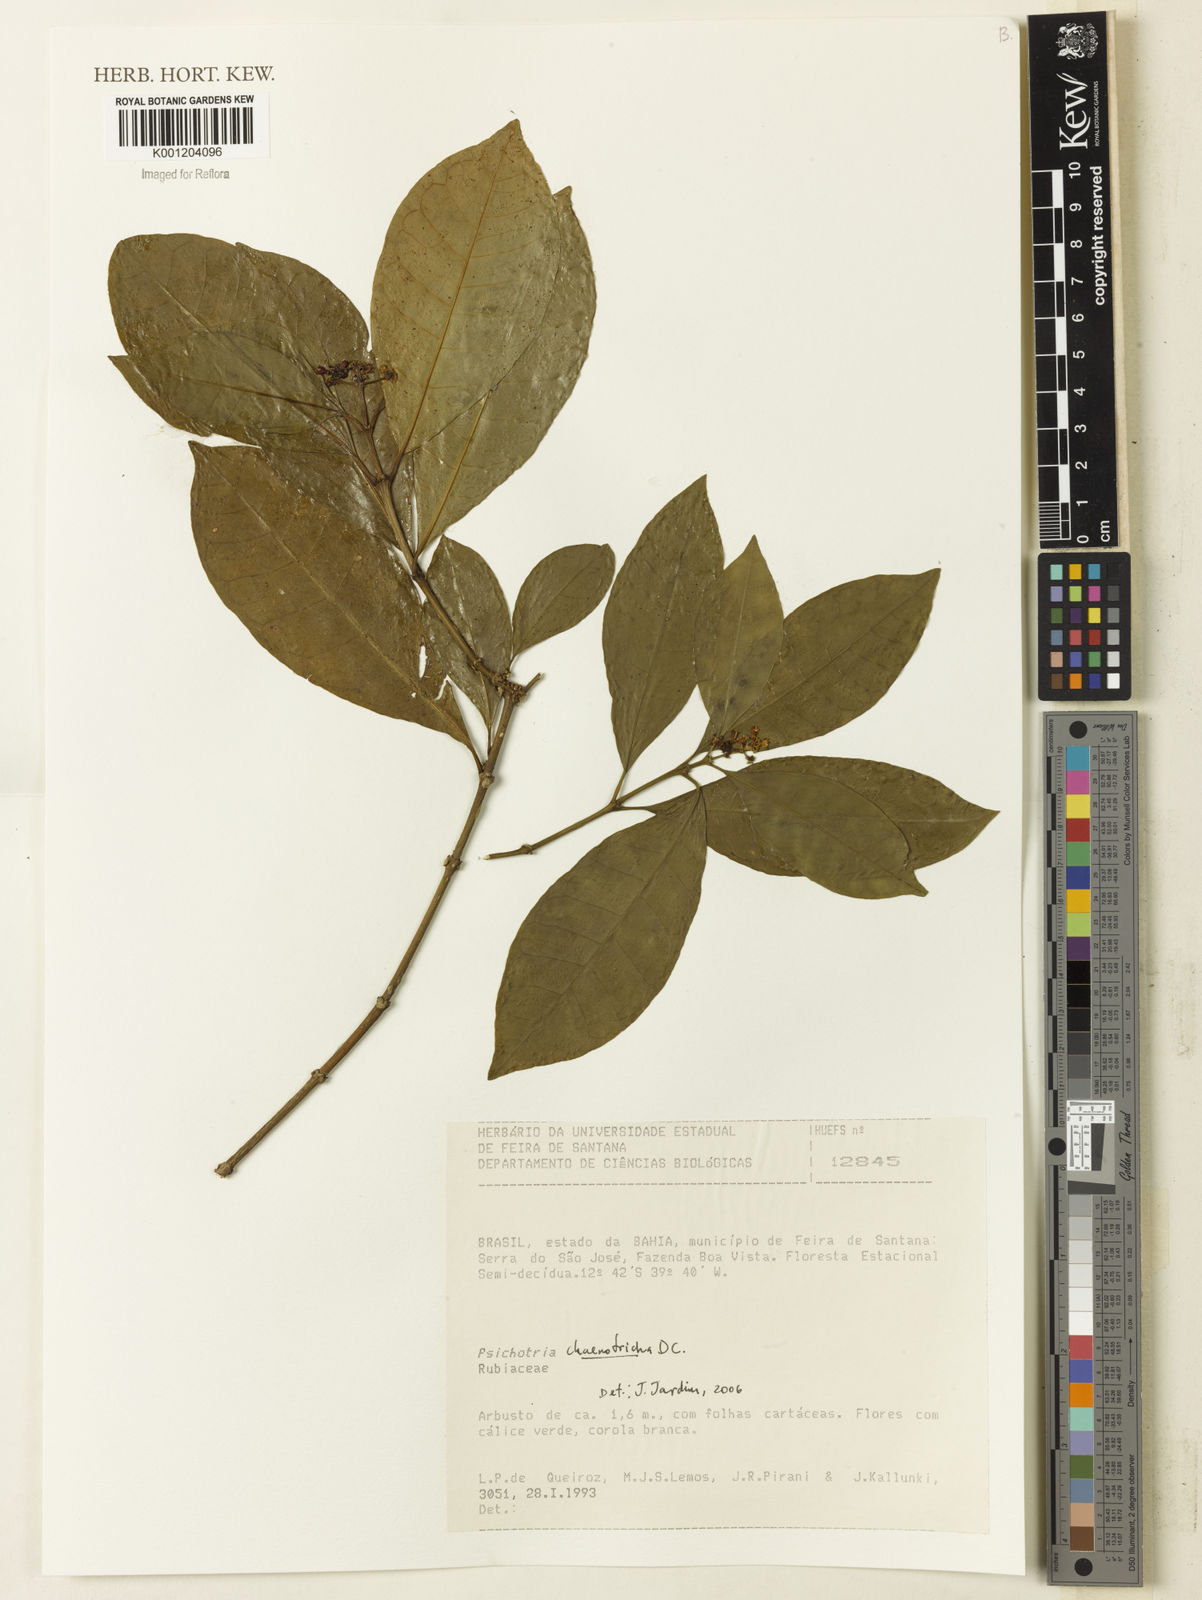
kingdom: Plantae
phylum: Tracheophyta
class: Magnoliopsida
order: Gentianales
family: Rubiaceae
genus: Eumachia
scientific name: Eumachia chaenotricha
